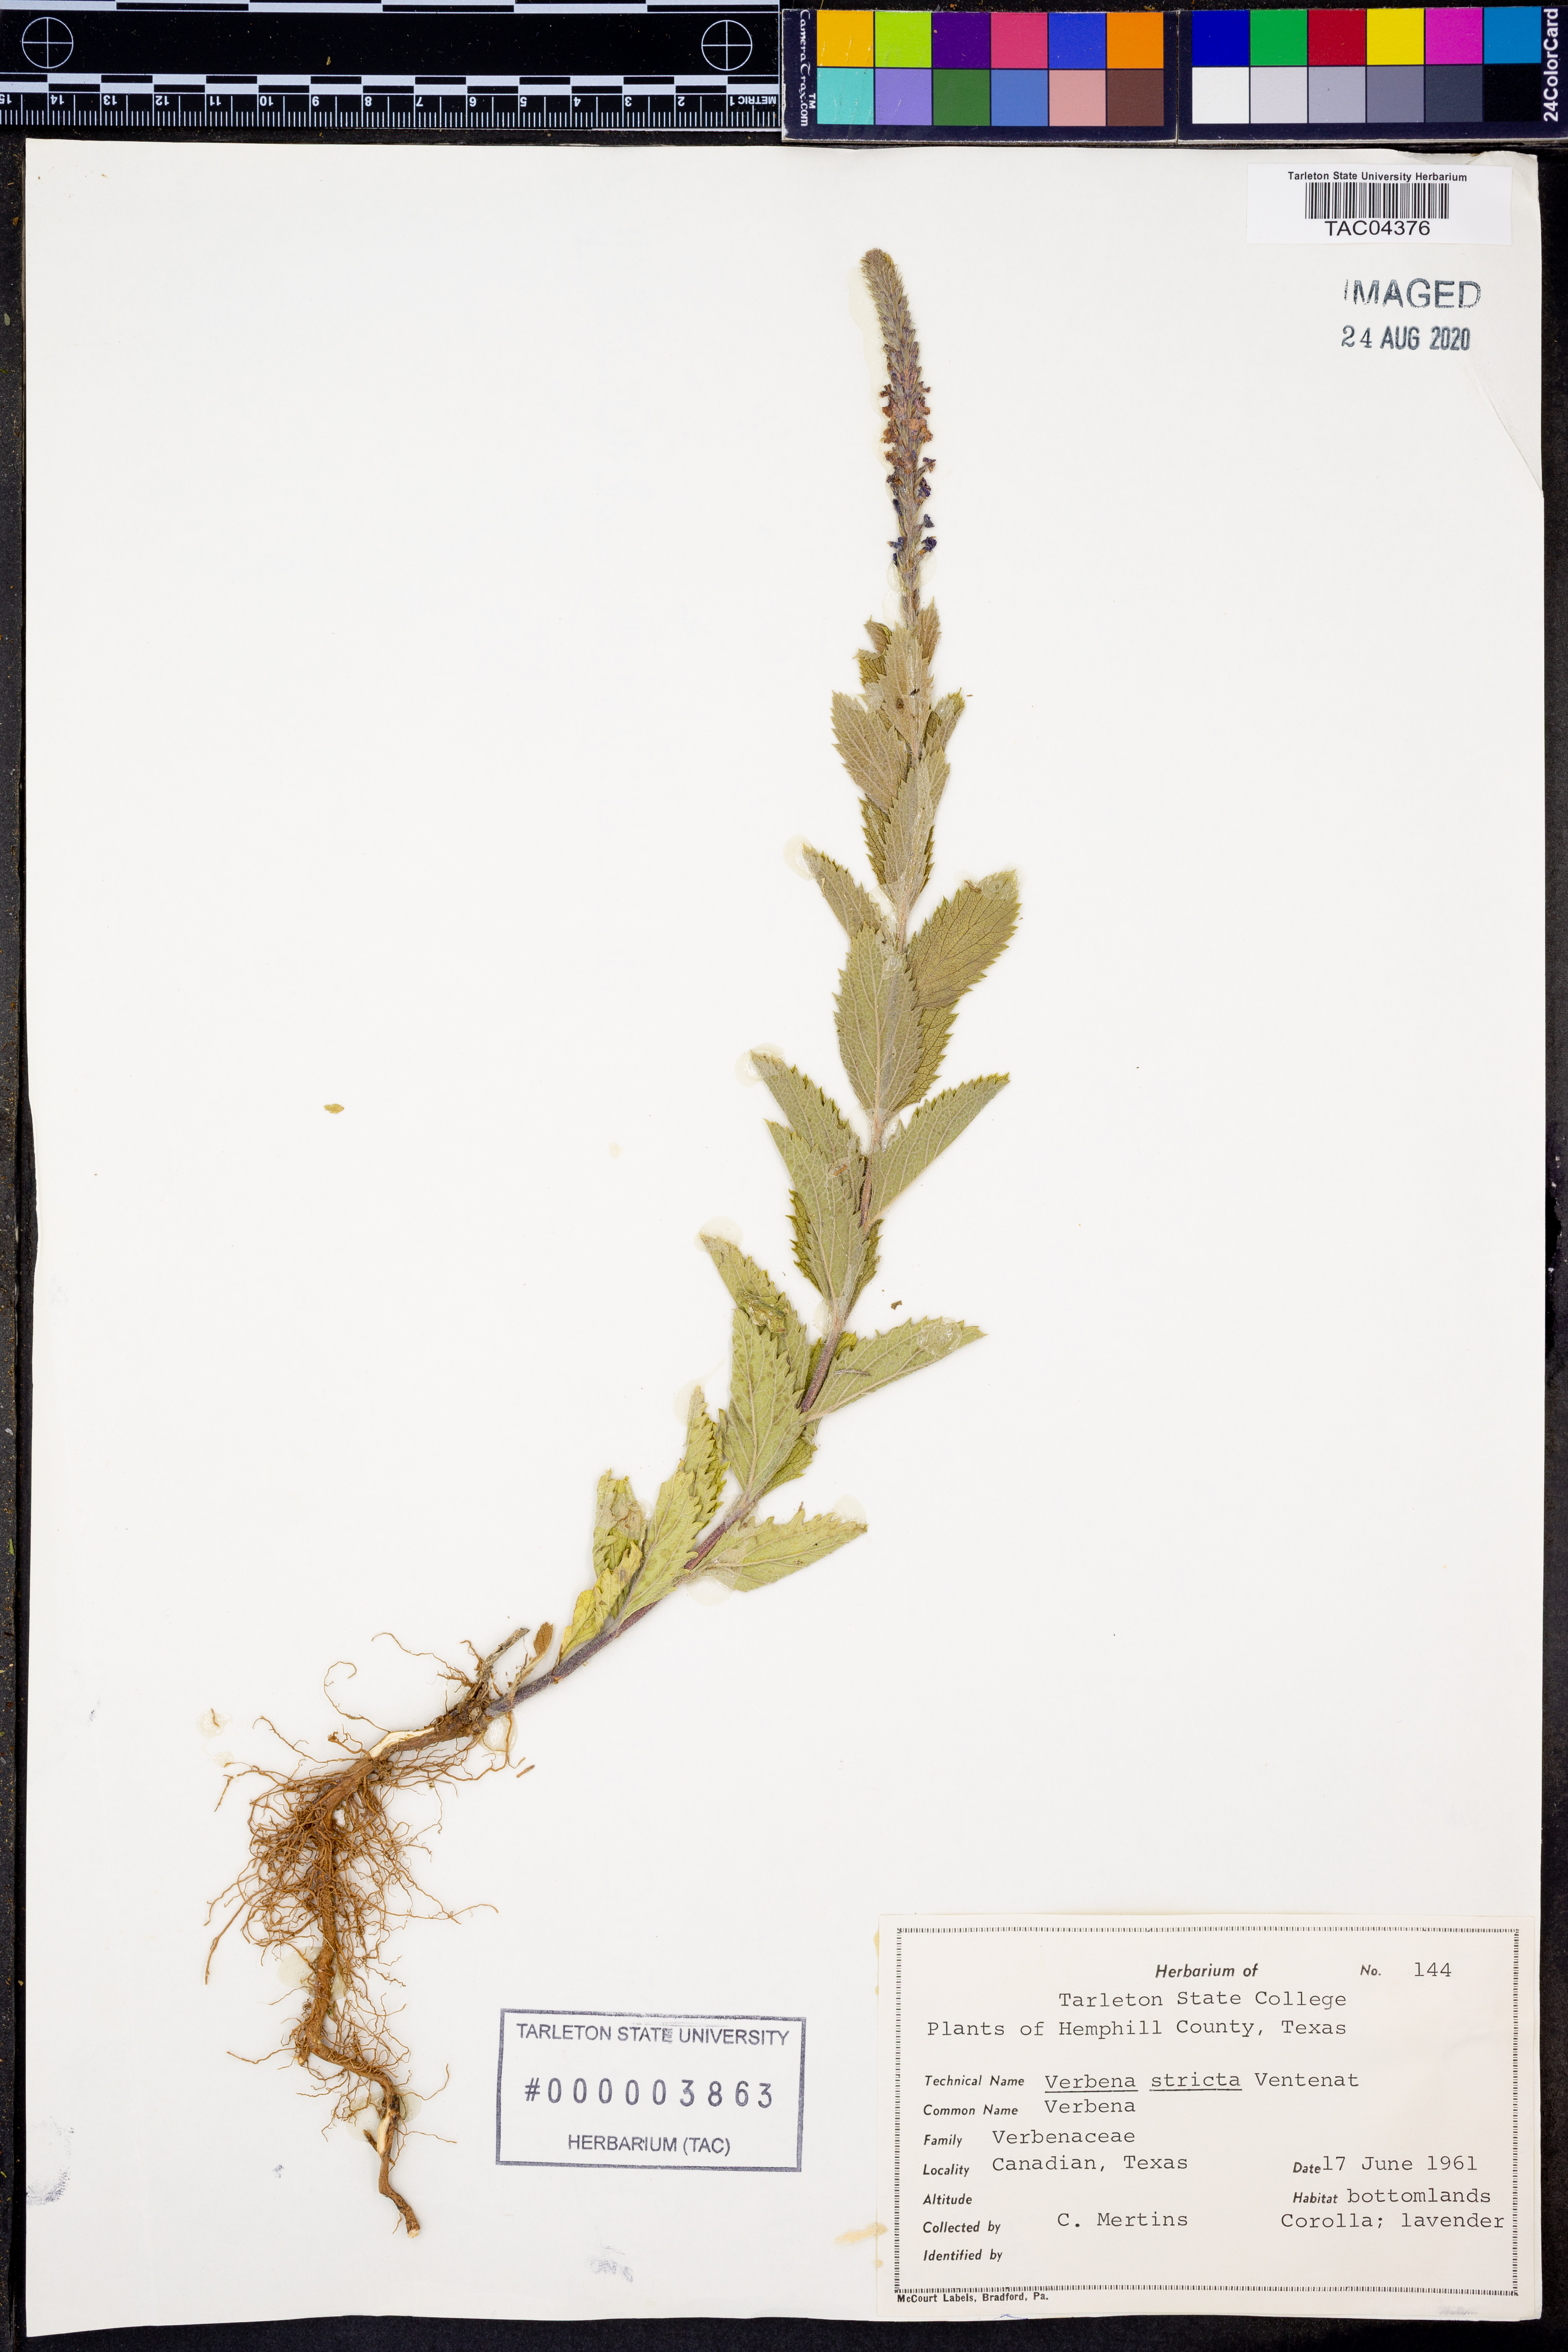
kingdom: Plantae
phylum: Tracheophyta
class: Magnoliopsida
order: Lamiales
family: Verbenaceae
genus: Verbena
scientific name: Verbena stricta
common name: Hoary vervain
